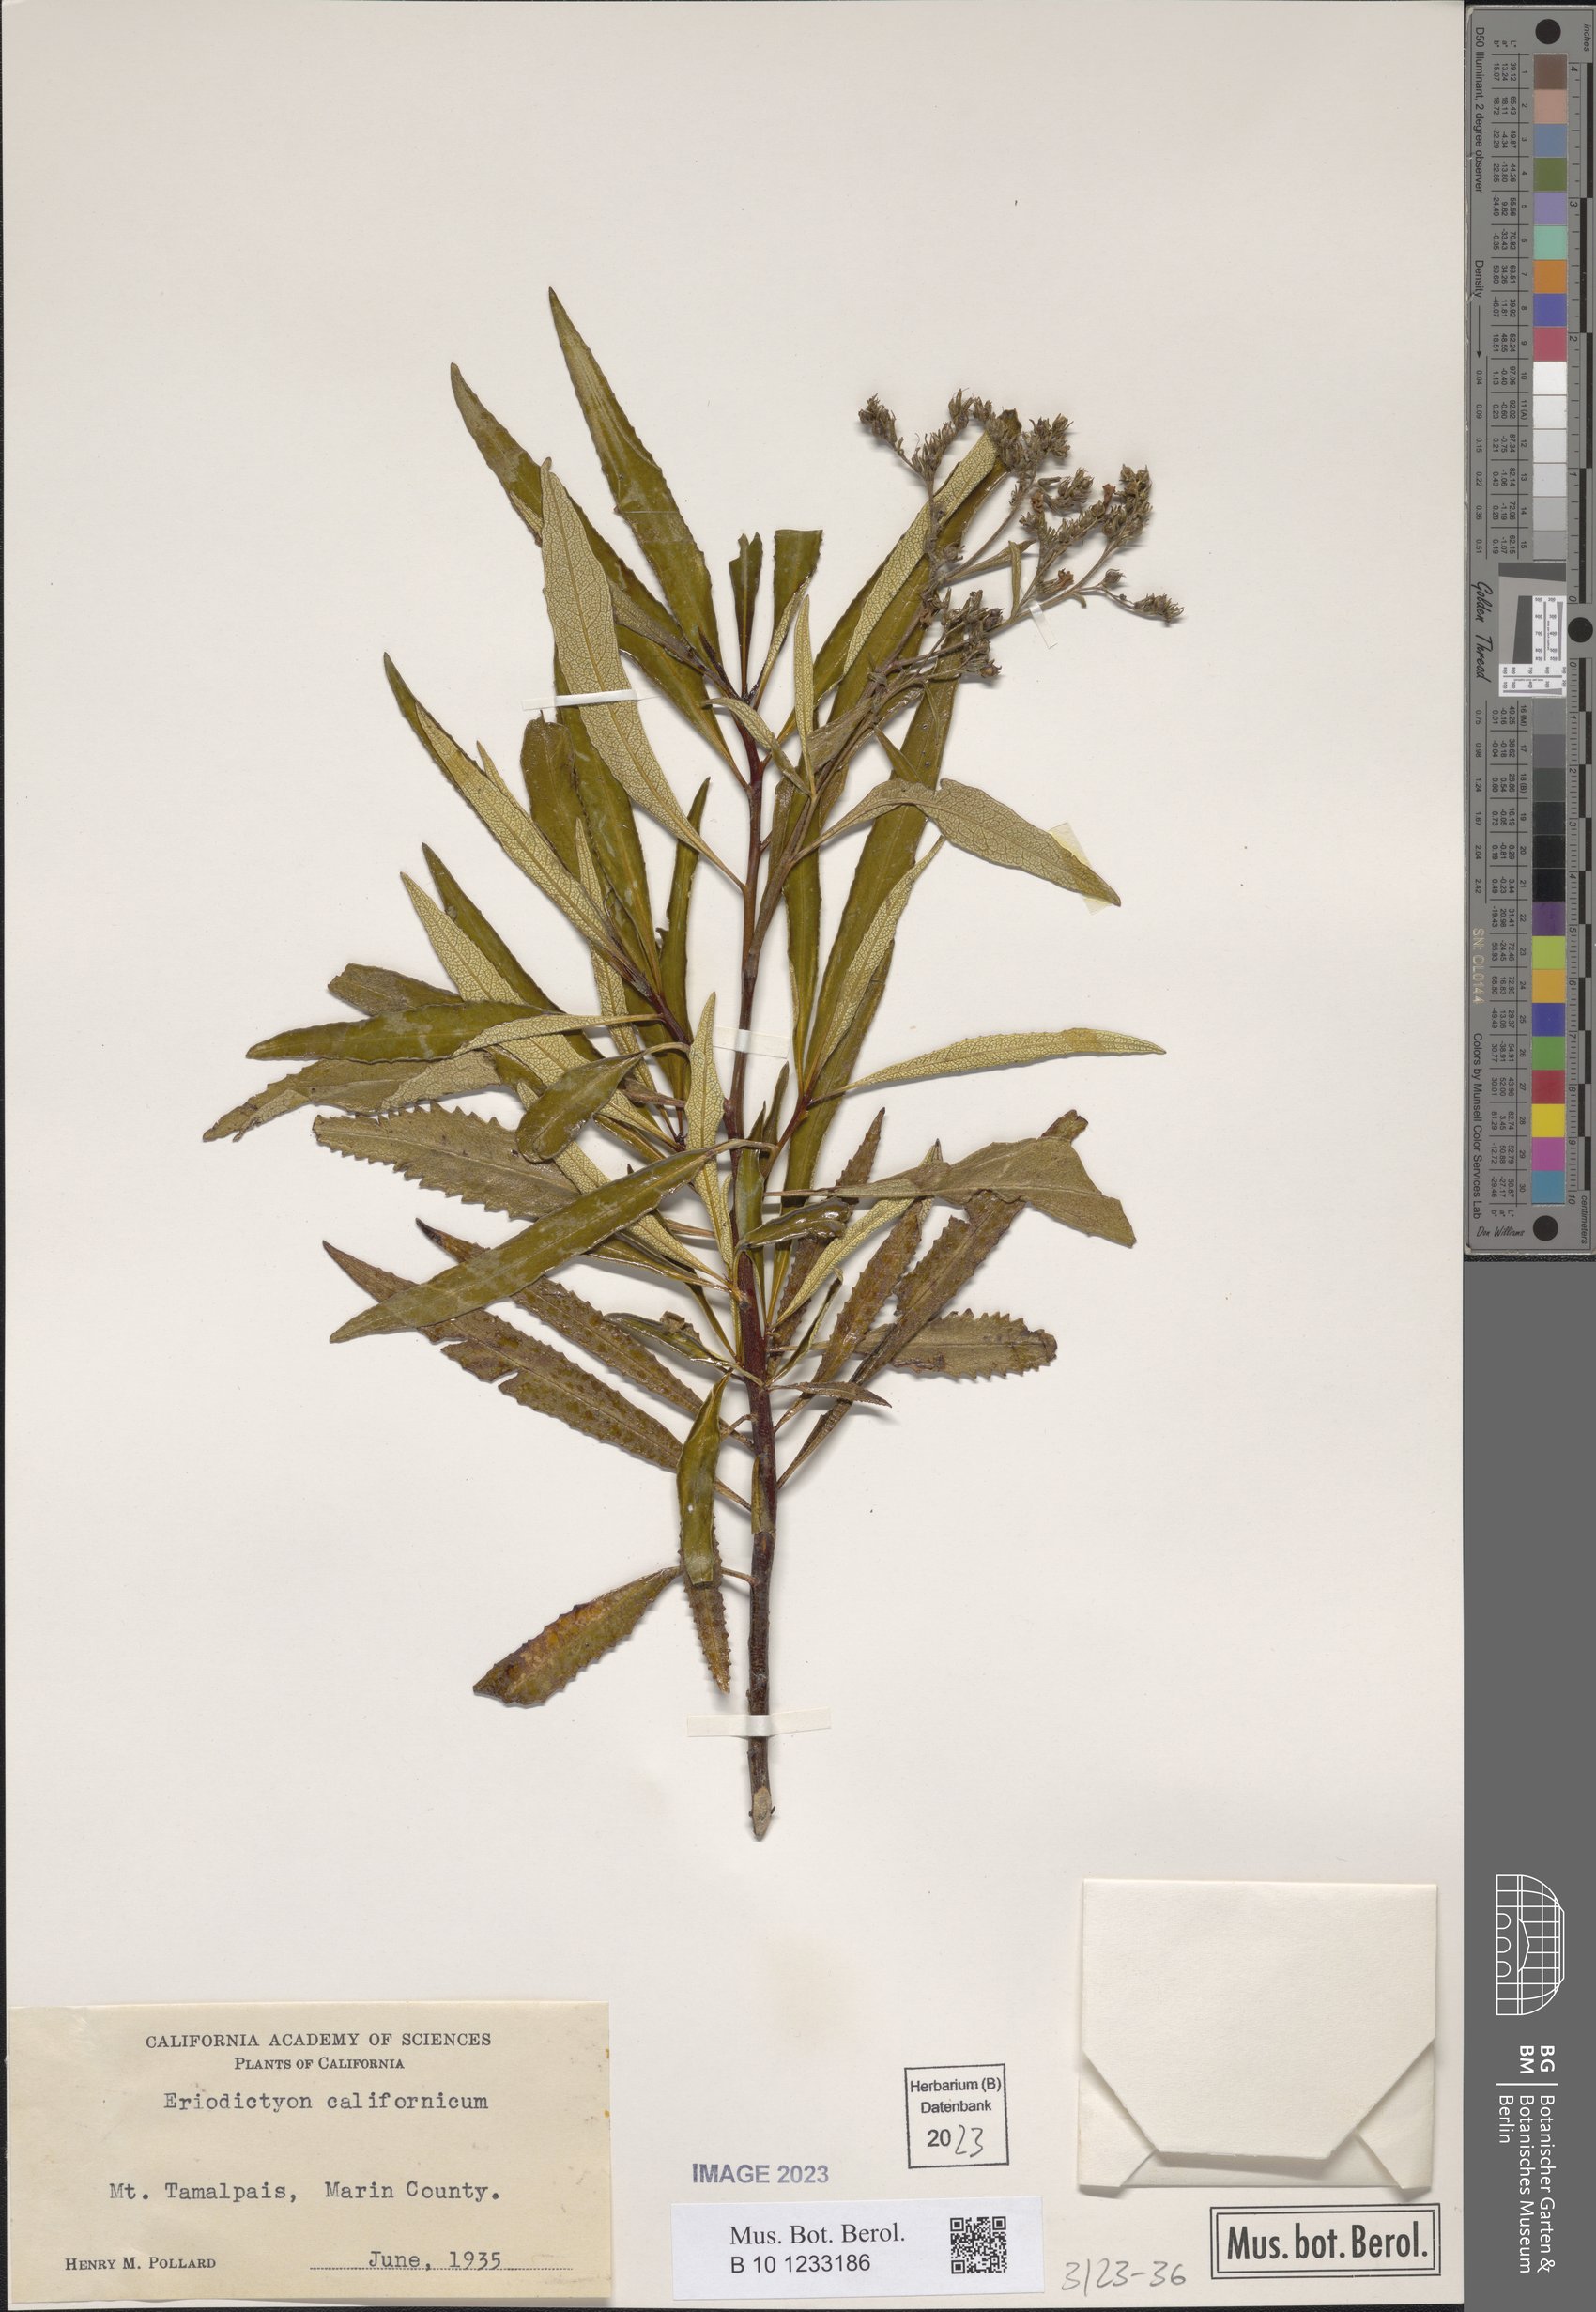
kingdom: Plantae
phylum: Tracheophyta
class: Magnoliopsida
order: Boraginales
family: Namaceae
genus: Eriodictyon
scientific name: Eriodictyon crassifolium
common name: Thick-leaf yerba-santa
